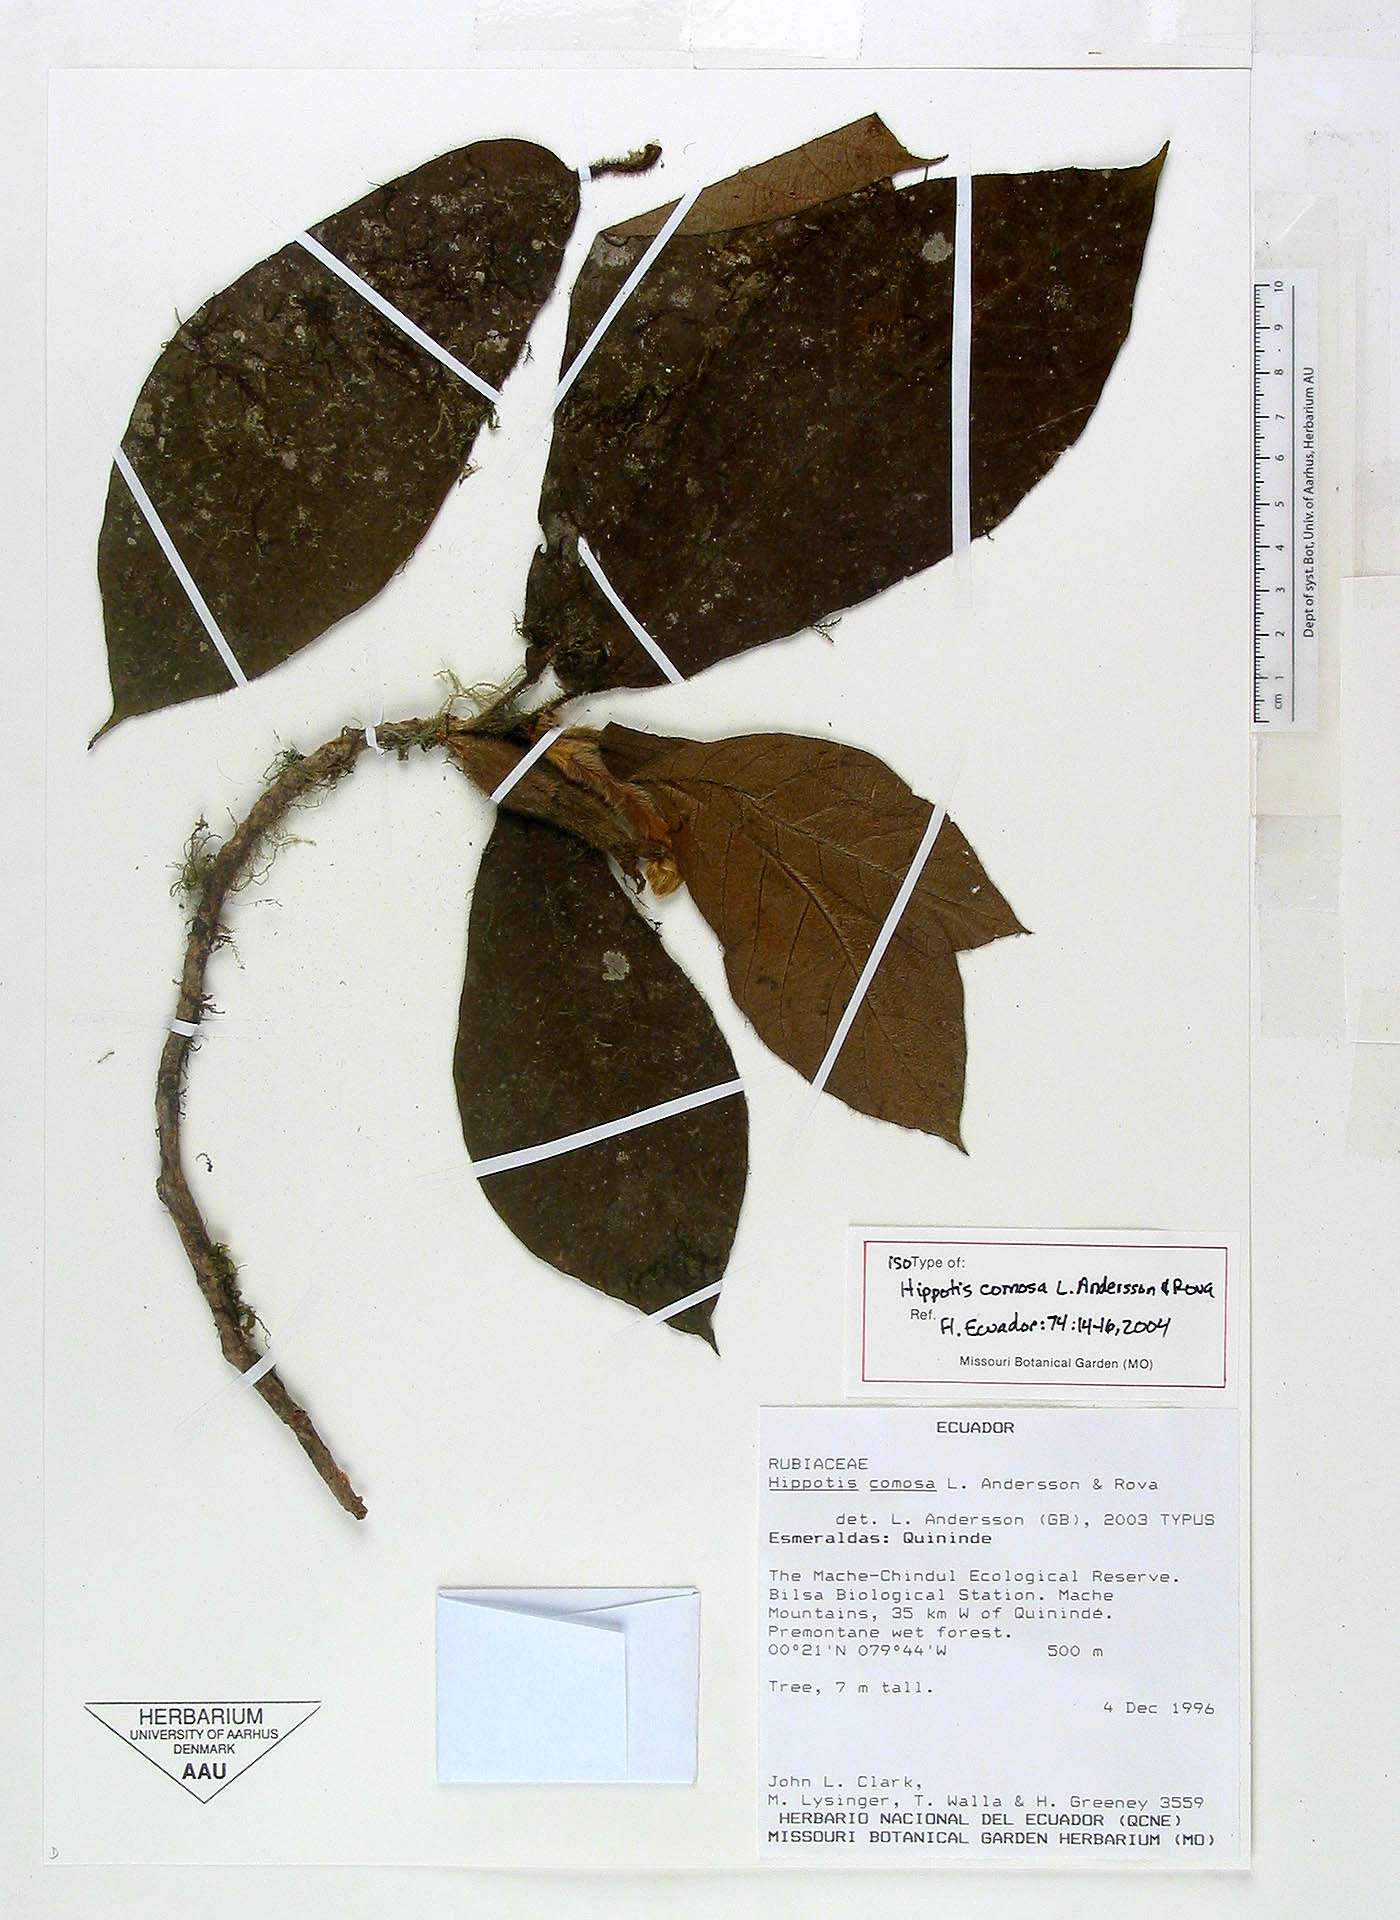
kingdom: Plantae
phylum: Tracheophyta
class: Magnoliopsida
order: Gentianales
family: Rubiaceae
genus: Hippotis
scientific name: Hippotis comosa
